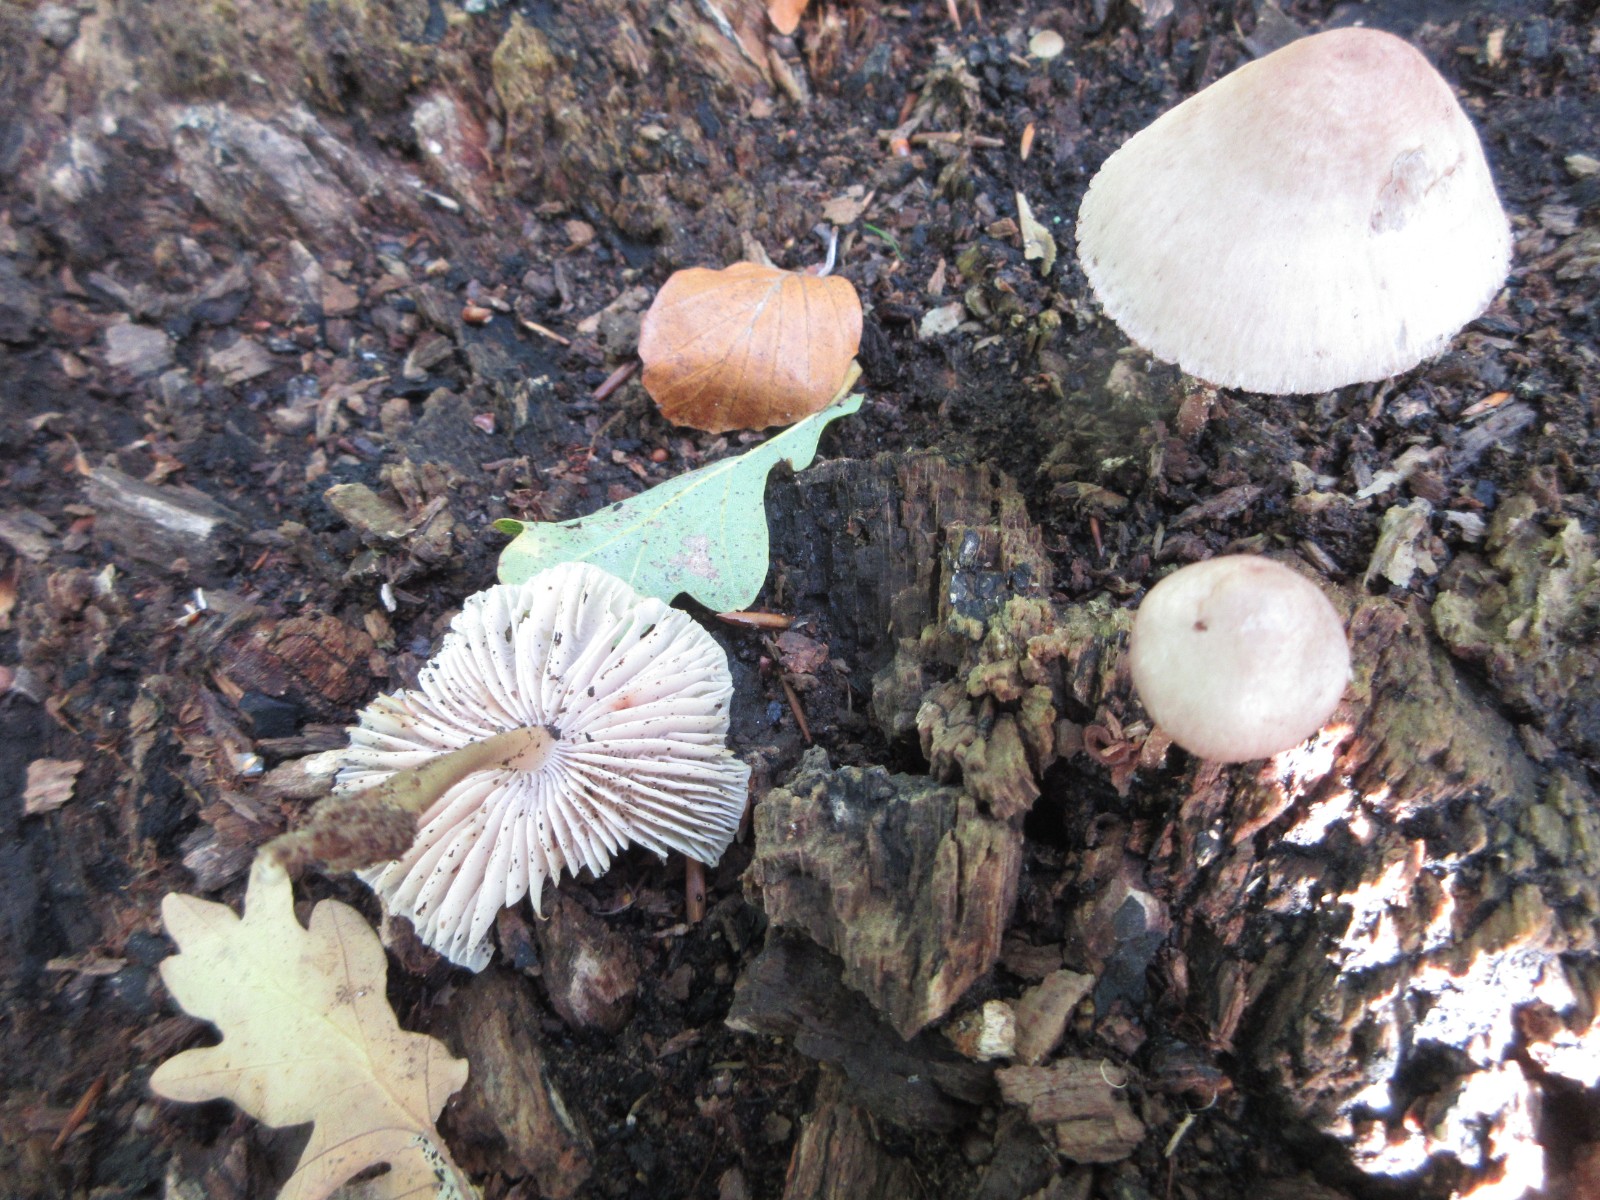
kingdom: Fungi
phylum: Basidiomycota
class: Agaricomycetes
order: Agaricales
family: Mycenaceae
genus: Mycena
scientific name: Mycena galericulata
